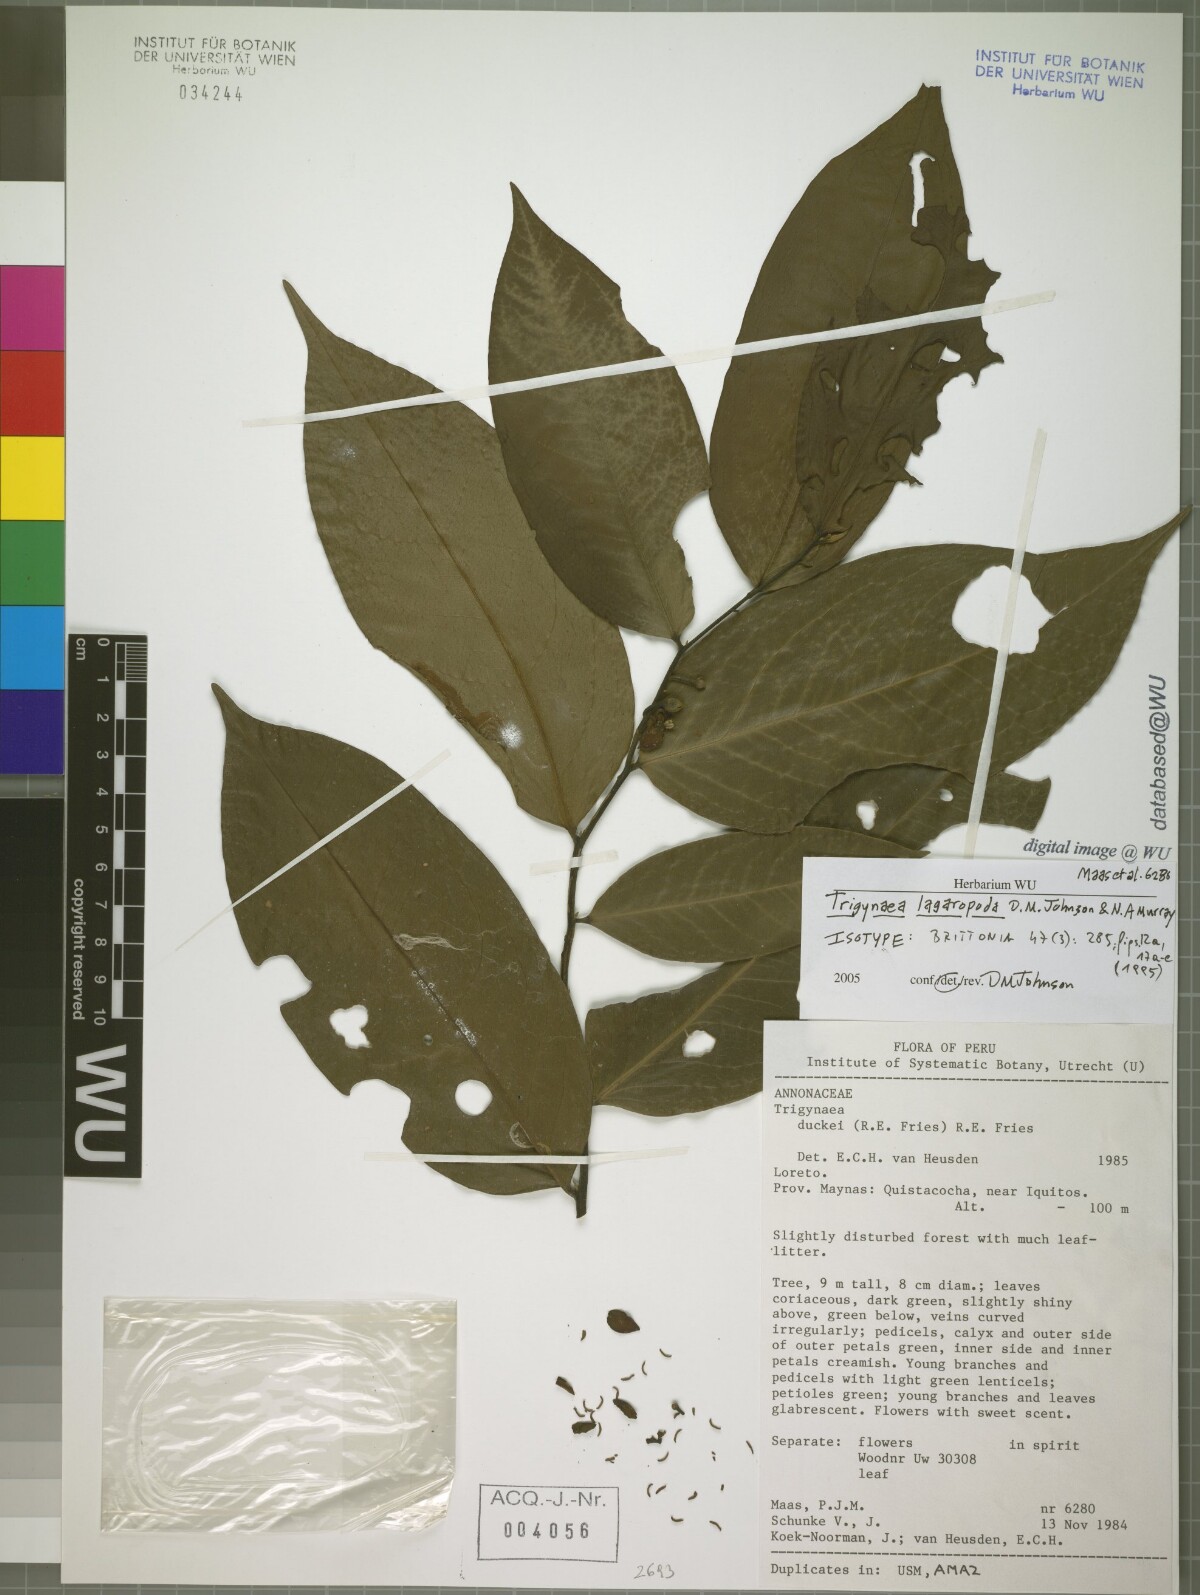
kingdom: Plantae
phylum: Tracheophyta
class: Magnoliopsida
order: Magnoliales
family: Annonaceae
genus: Trigynaea
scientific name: Trigynaea lagaropoda
